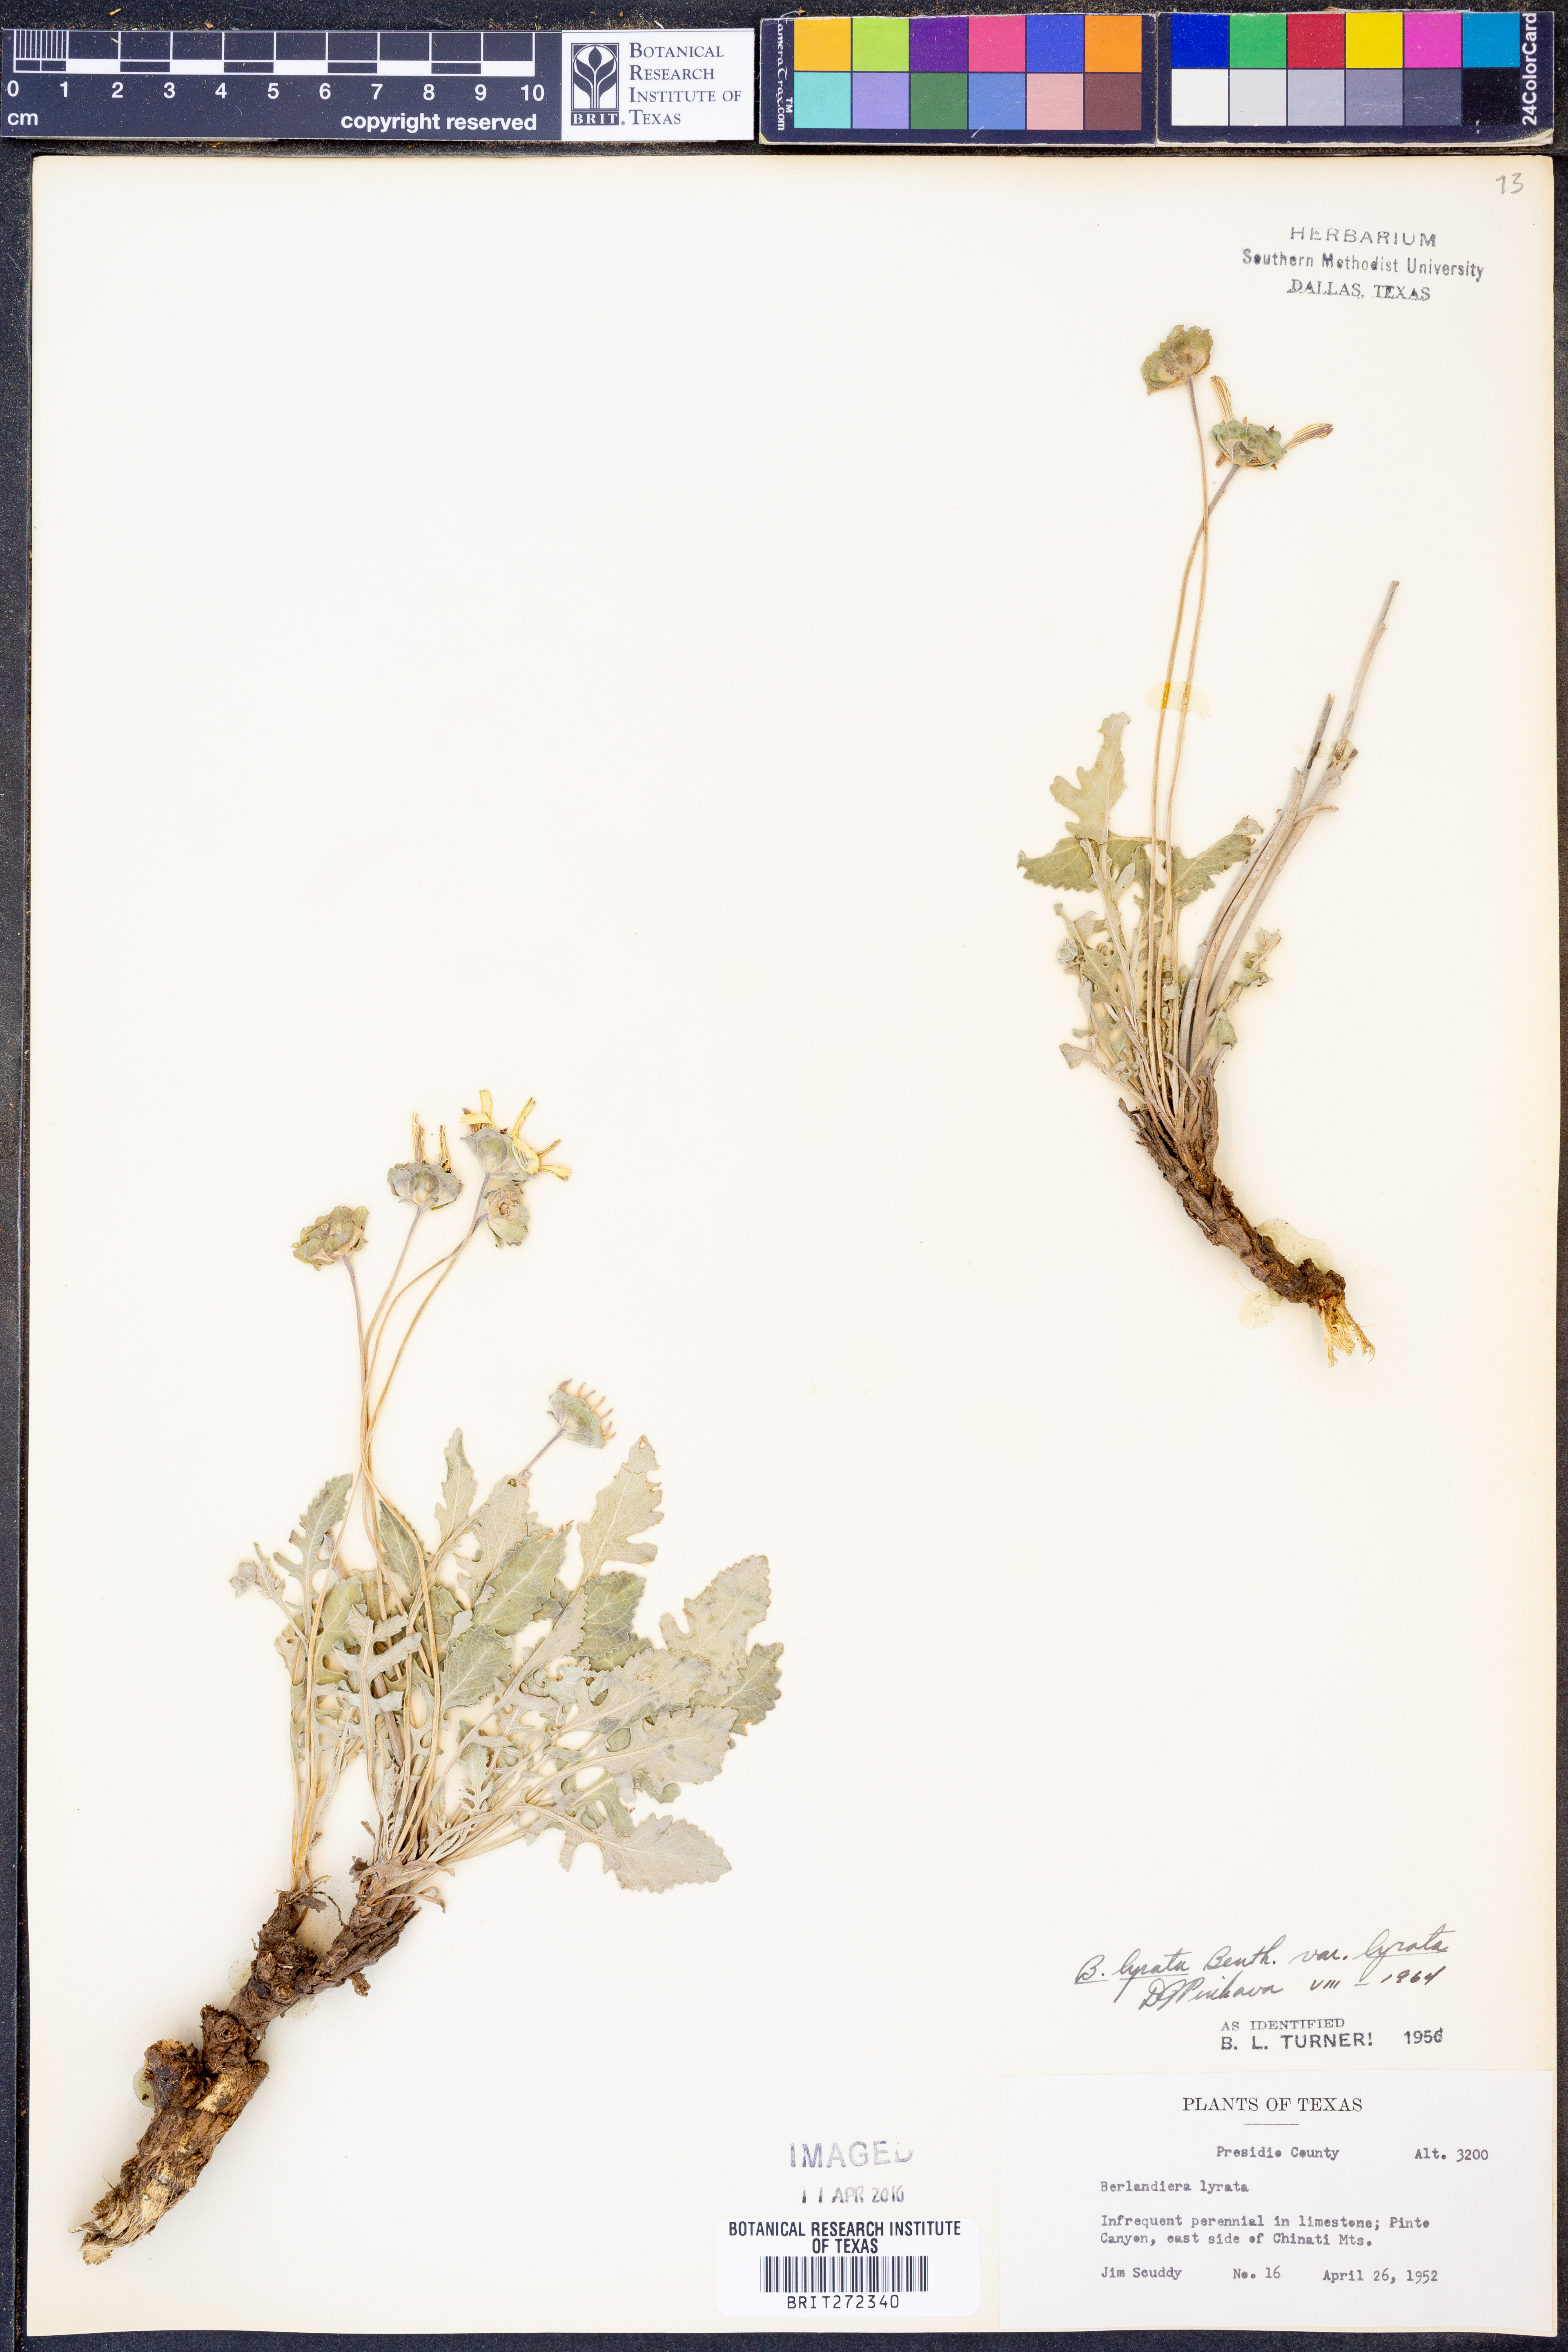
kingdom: Plantae
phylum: Tracheophyta
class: Magnoliopsida
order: Asterales
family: Asteraceae
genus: Berlandiera
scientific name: Berlandiera lyrata
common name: Chocolate-flower
